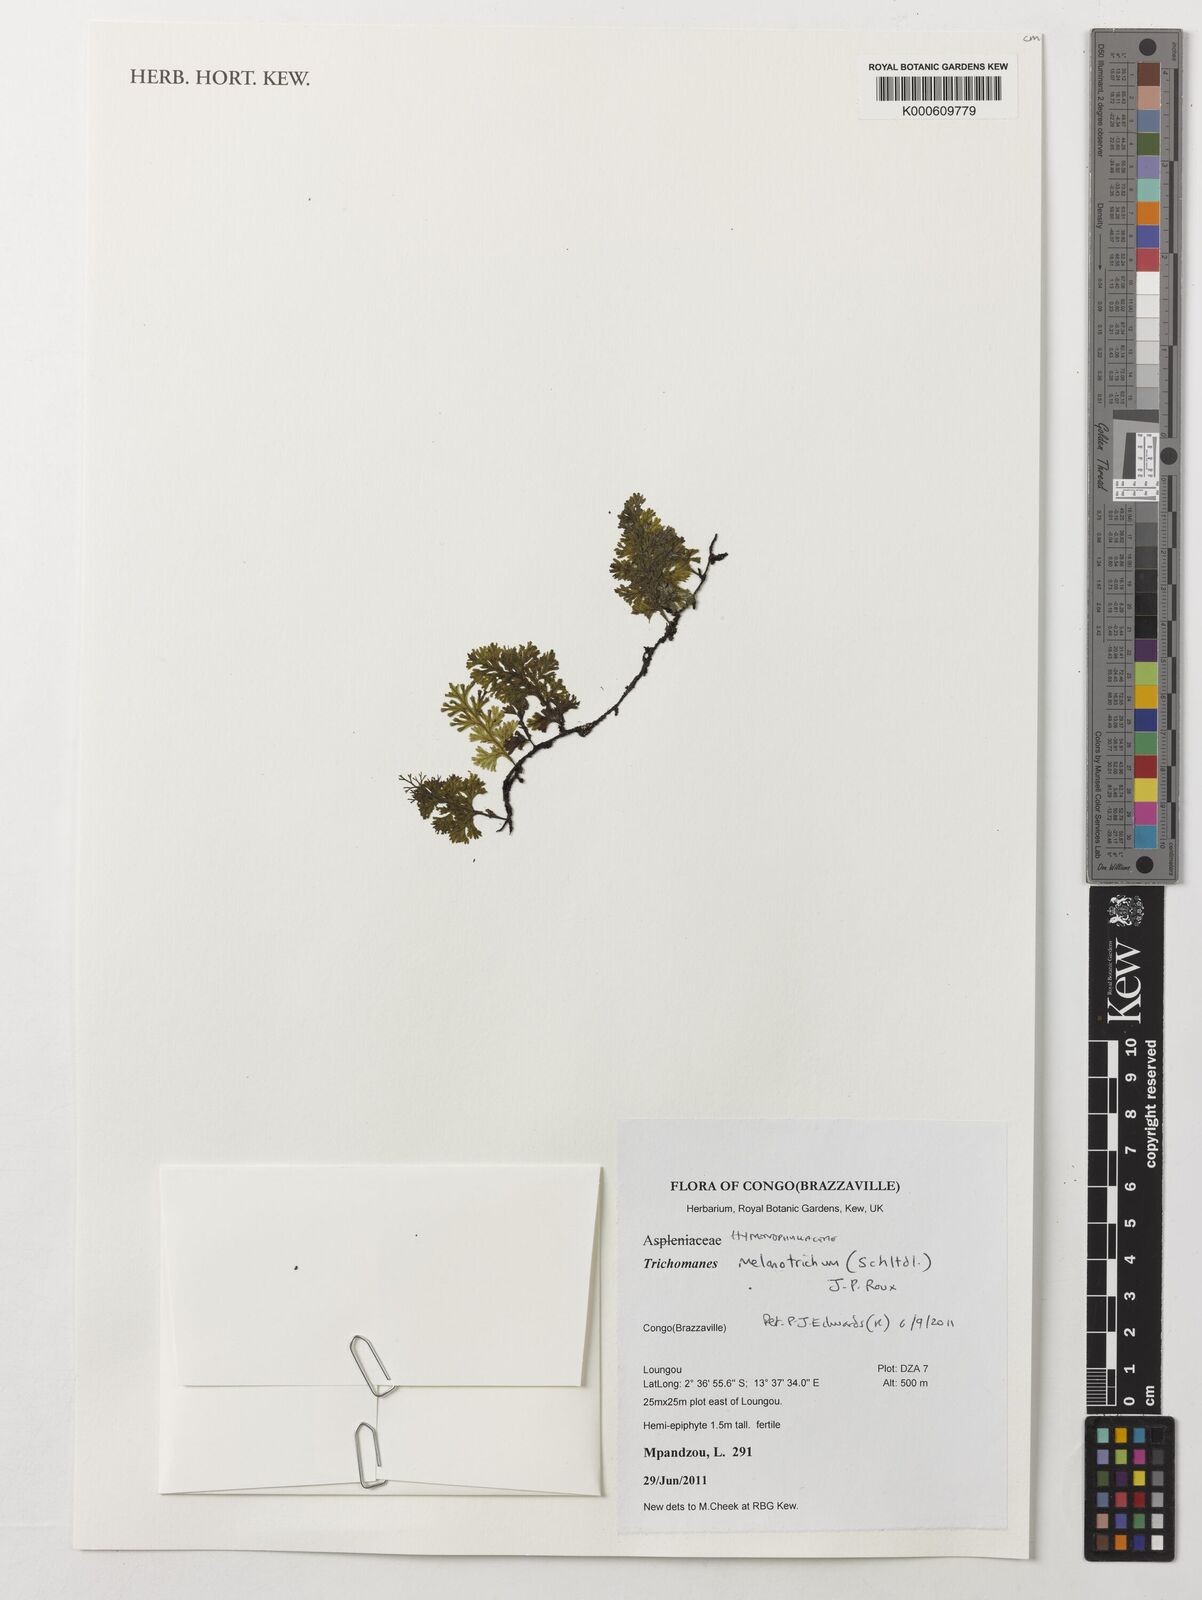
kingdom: Plantae
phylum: Tracheophyta
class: Polypodiopsida
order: Hymenophyllales
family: Hymenophyllaceae
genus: Crepidomanes
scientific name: Crepidomanes melanotrichum
